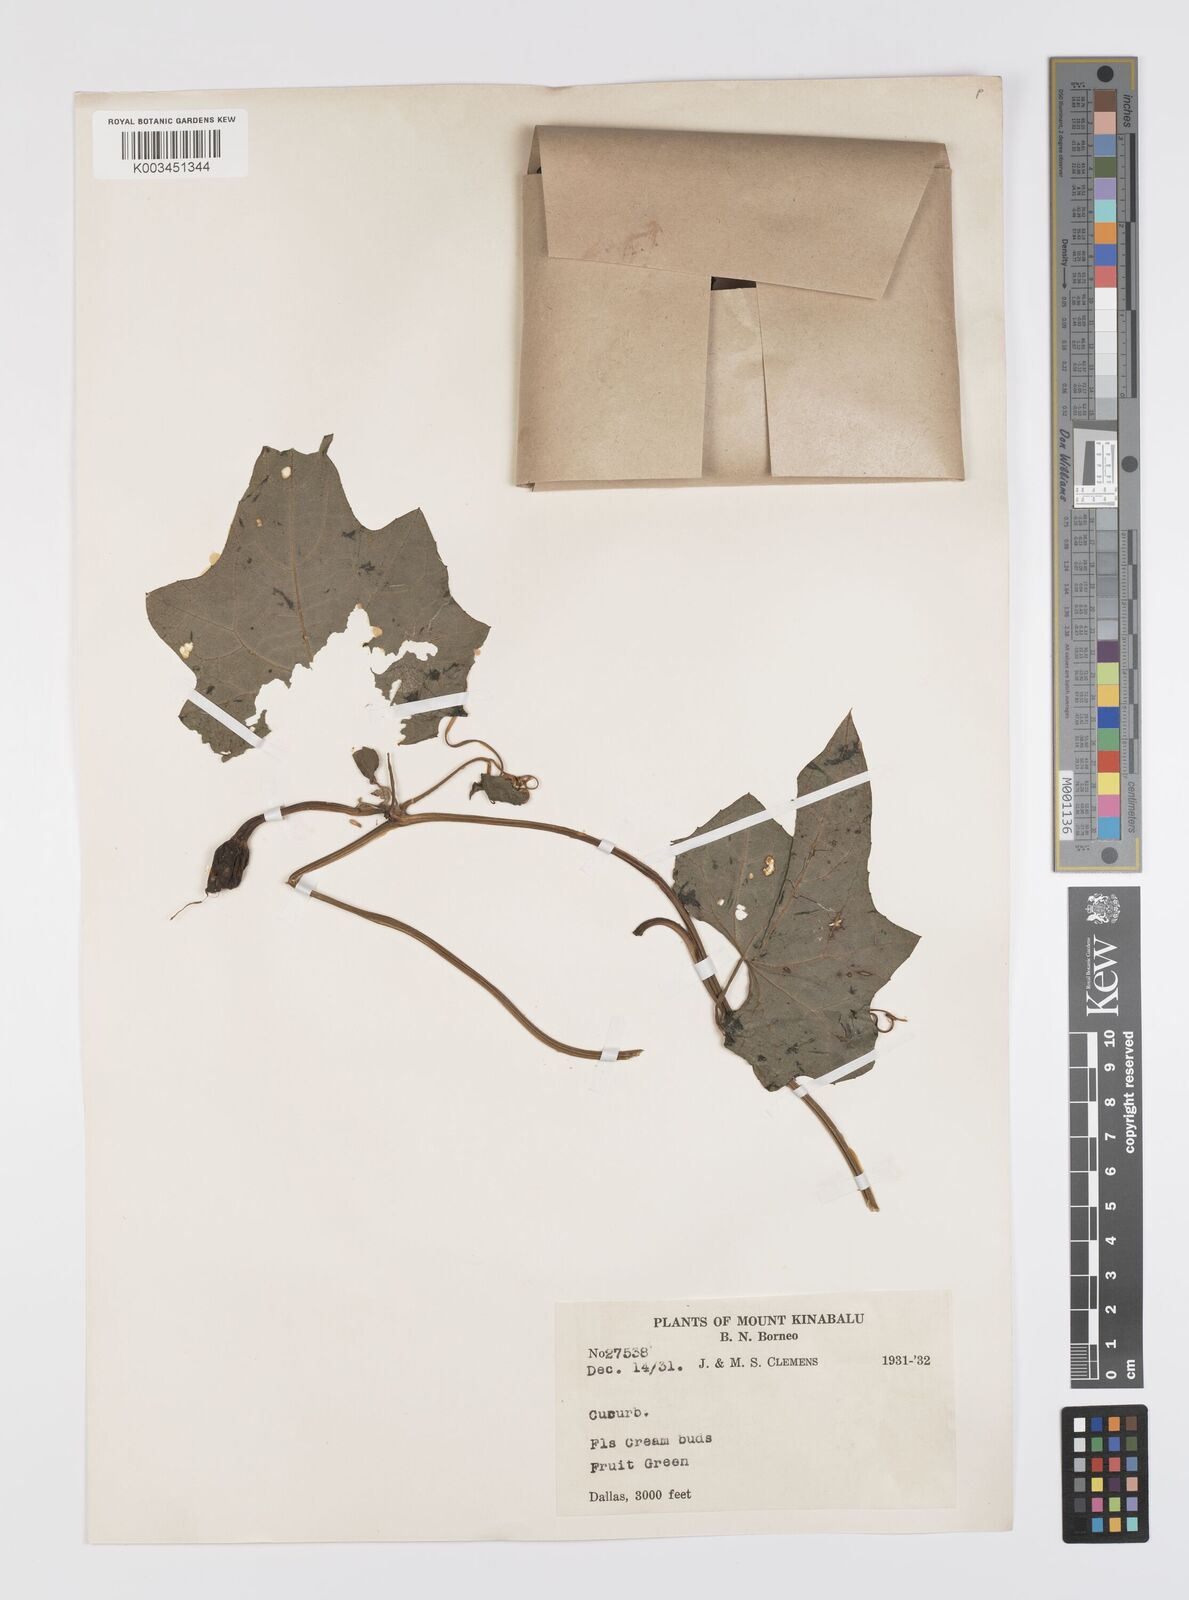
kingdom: Plantae
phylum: Tracheophyta
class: Magnoliopsida
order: Cucurbitales
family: Cucurbitaceae
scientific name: Cucurbitaceae
